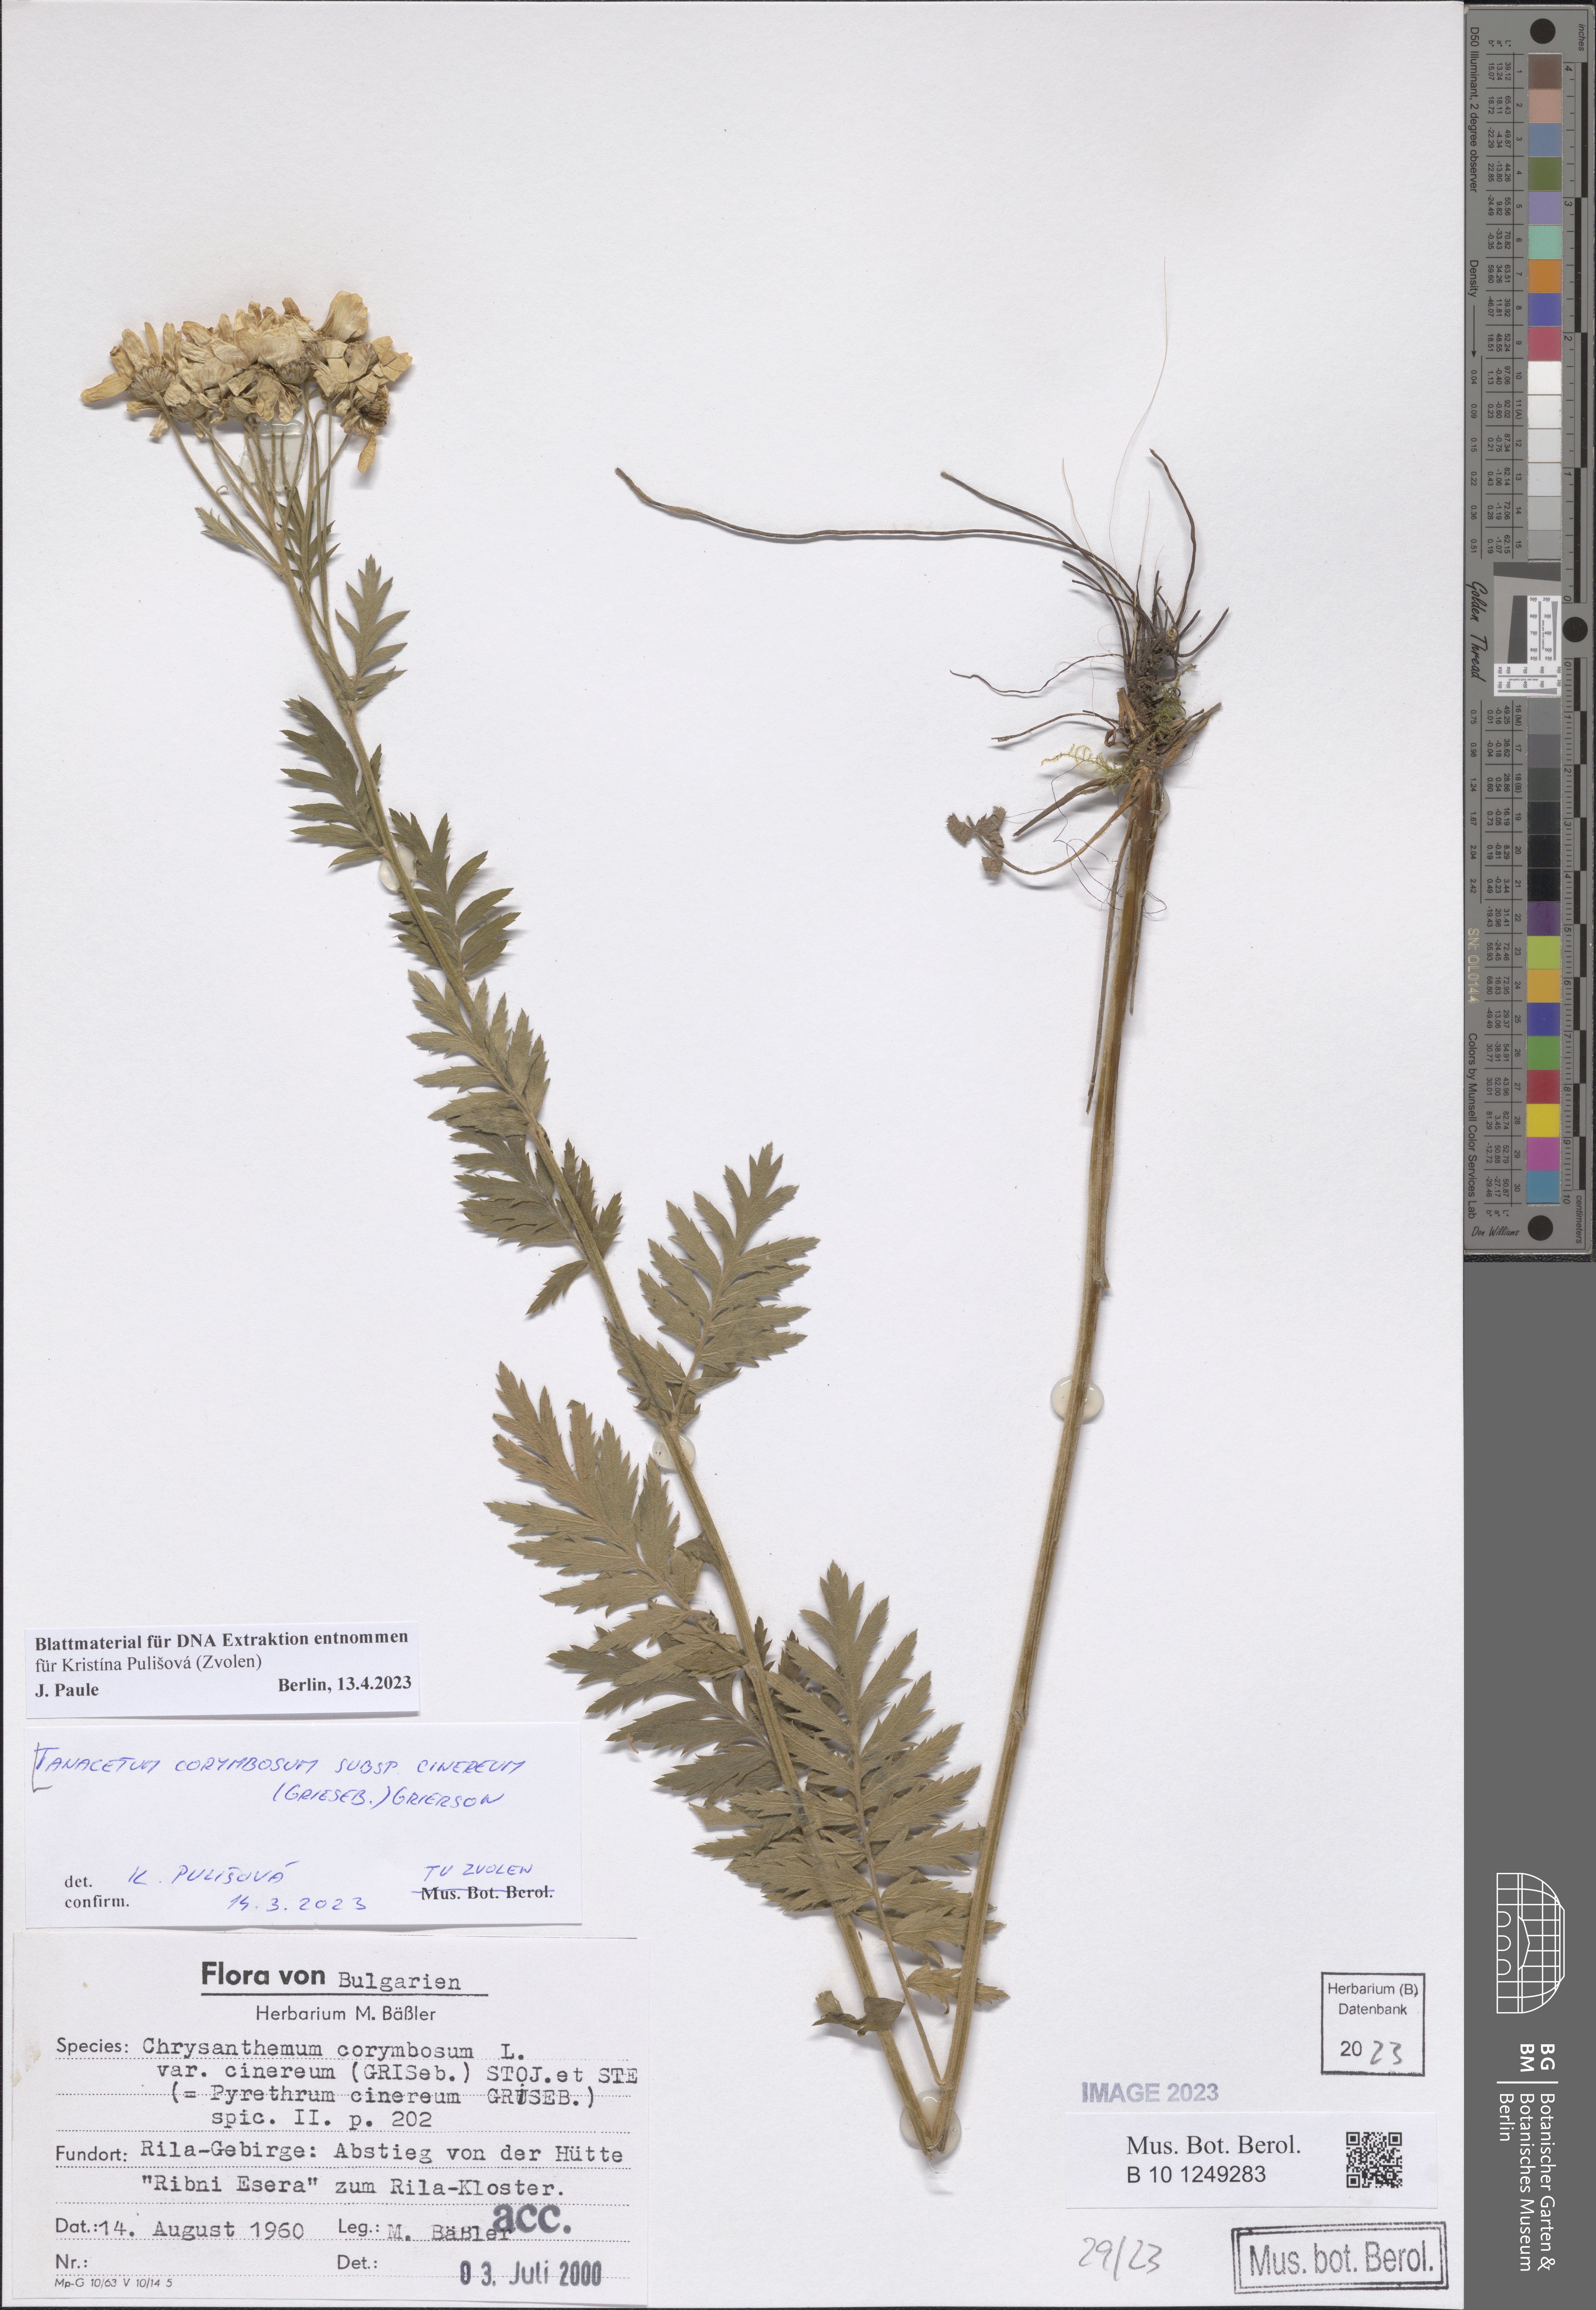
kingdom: Plantae
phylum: Tracheophyta
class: Magnoliopsida
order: Asterales
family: Asteraceae
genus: Tanacetum
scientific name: Tanacetum corymbosum
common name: Scentless feverfew
